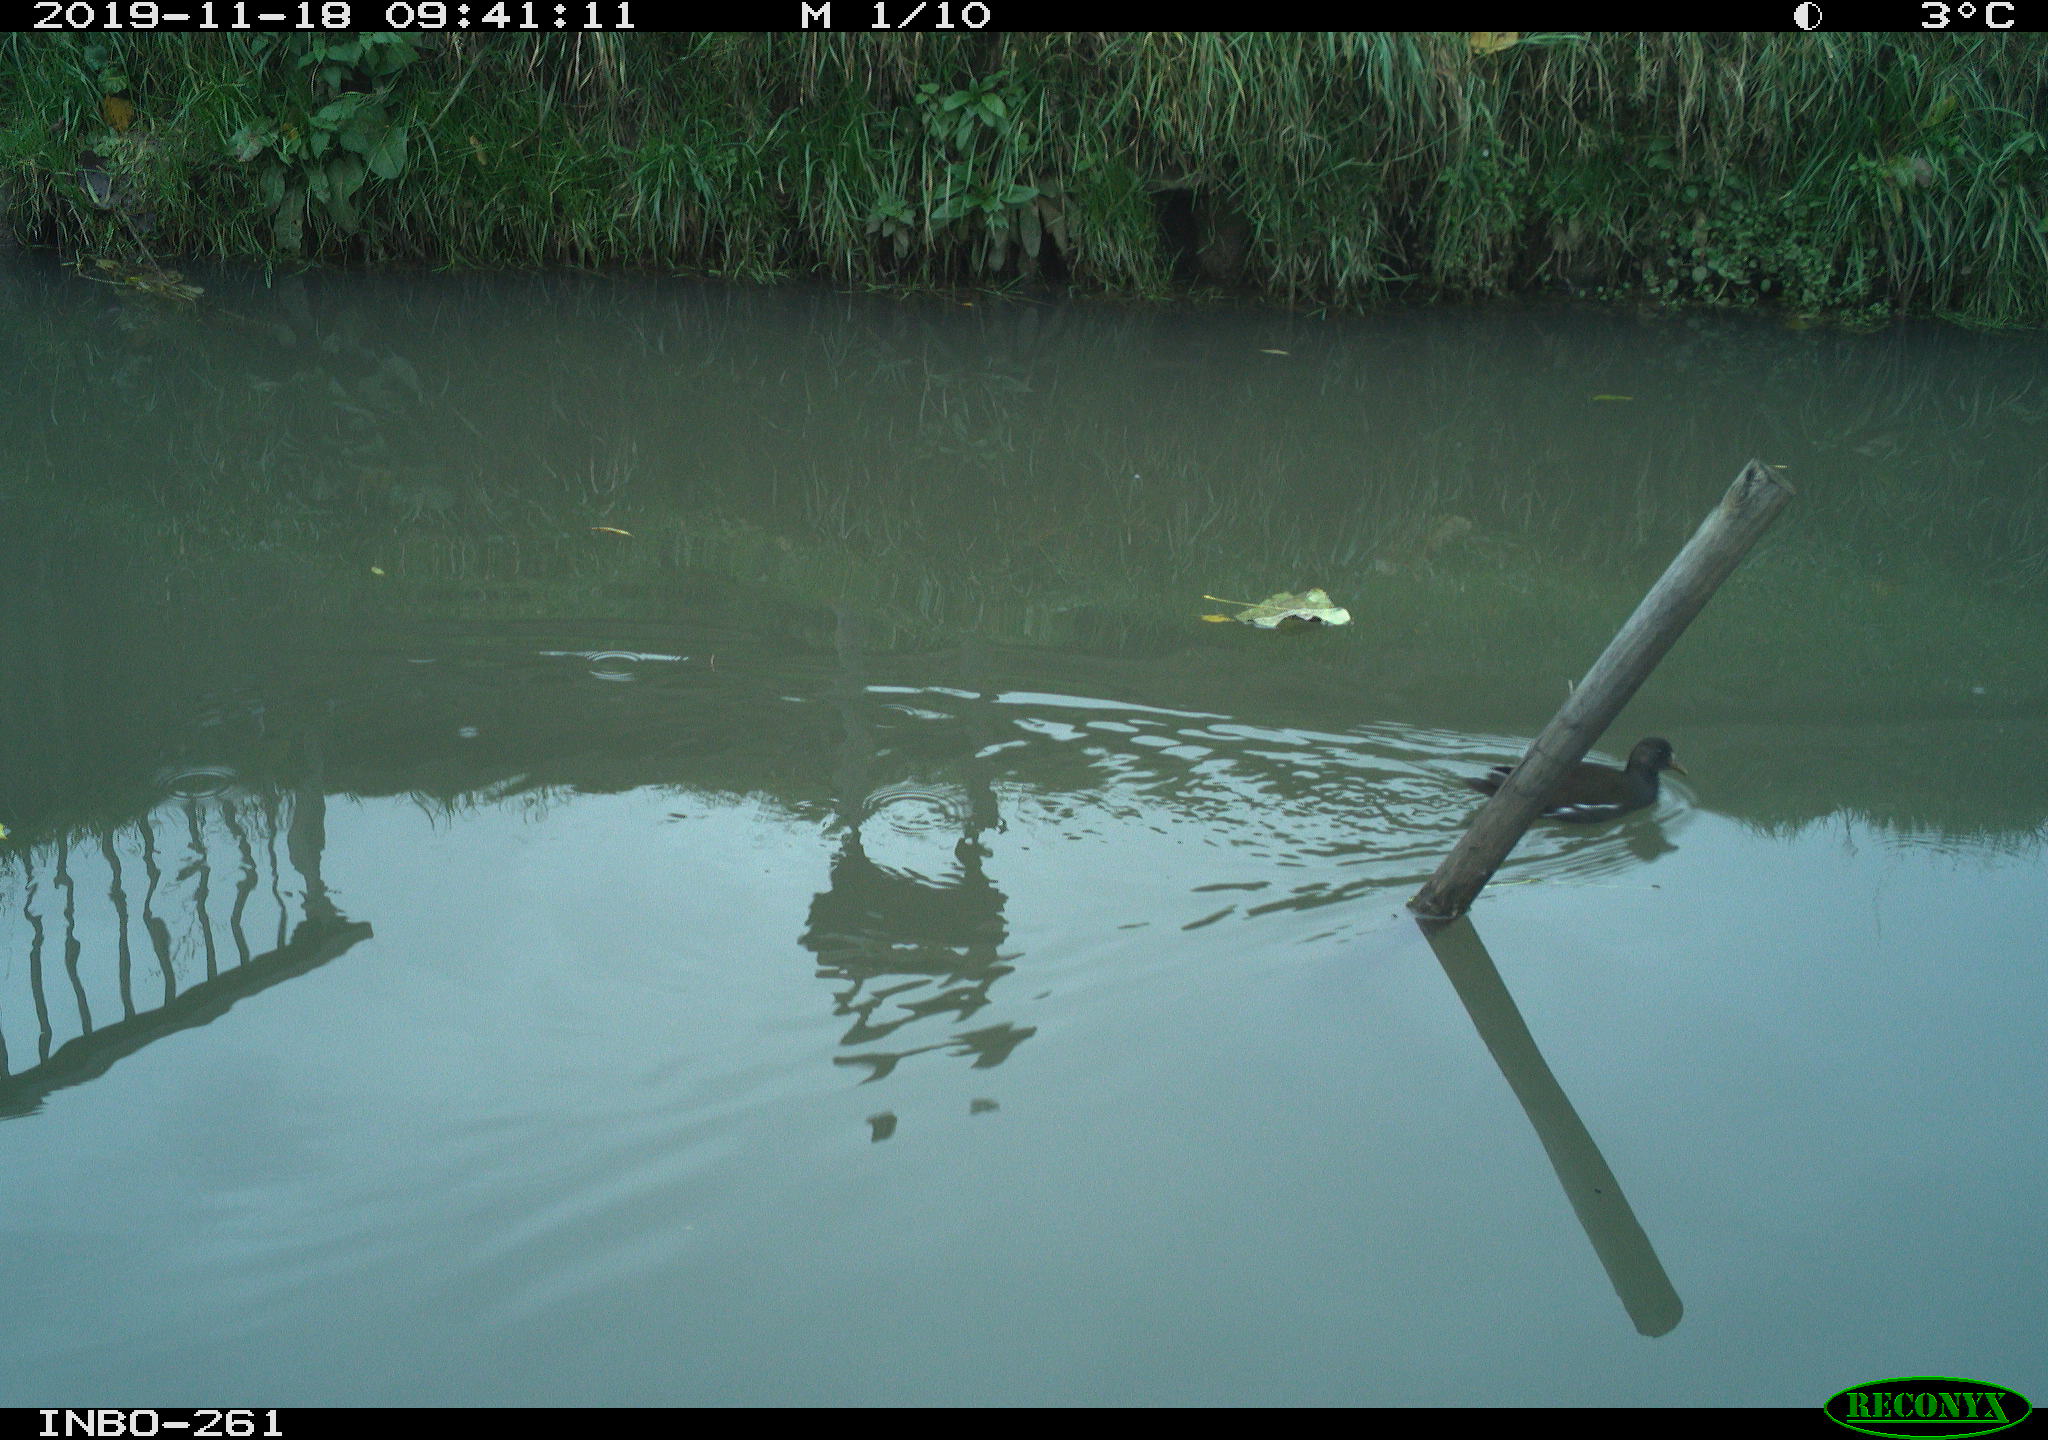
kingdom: Animalia
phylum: Chordata
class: Aves
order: Gruiformes
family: Rallidae
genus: Gallinula
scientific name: Gallinula chloropus
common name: Common moorhen
